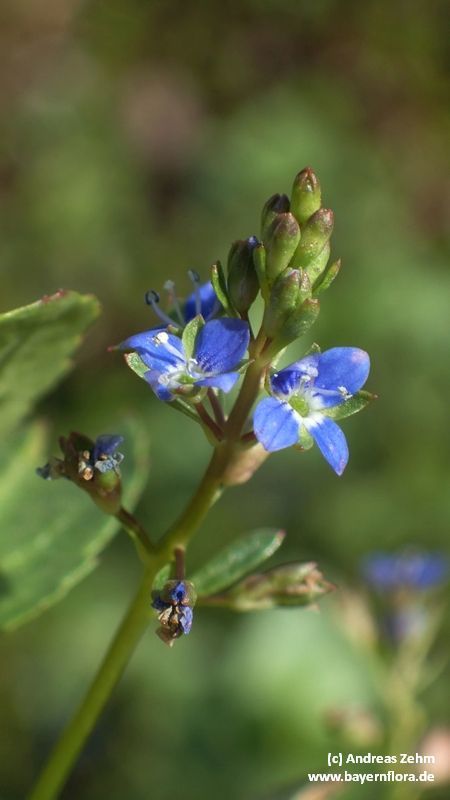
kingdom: Plantae
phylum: Tracheophyta
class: Magnoliopsida
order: Lamiales
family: Plantaginaceae
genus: Veronica
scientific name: Veronica beccabunga
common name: Brooklime
